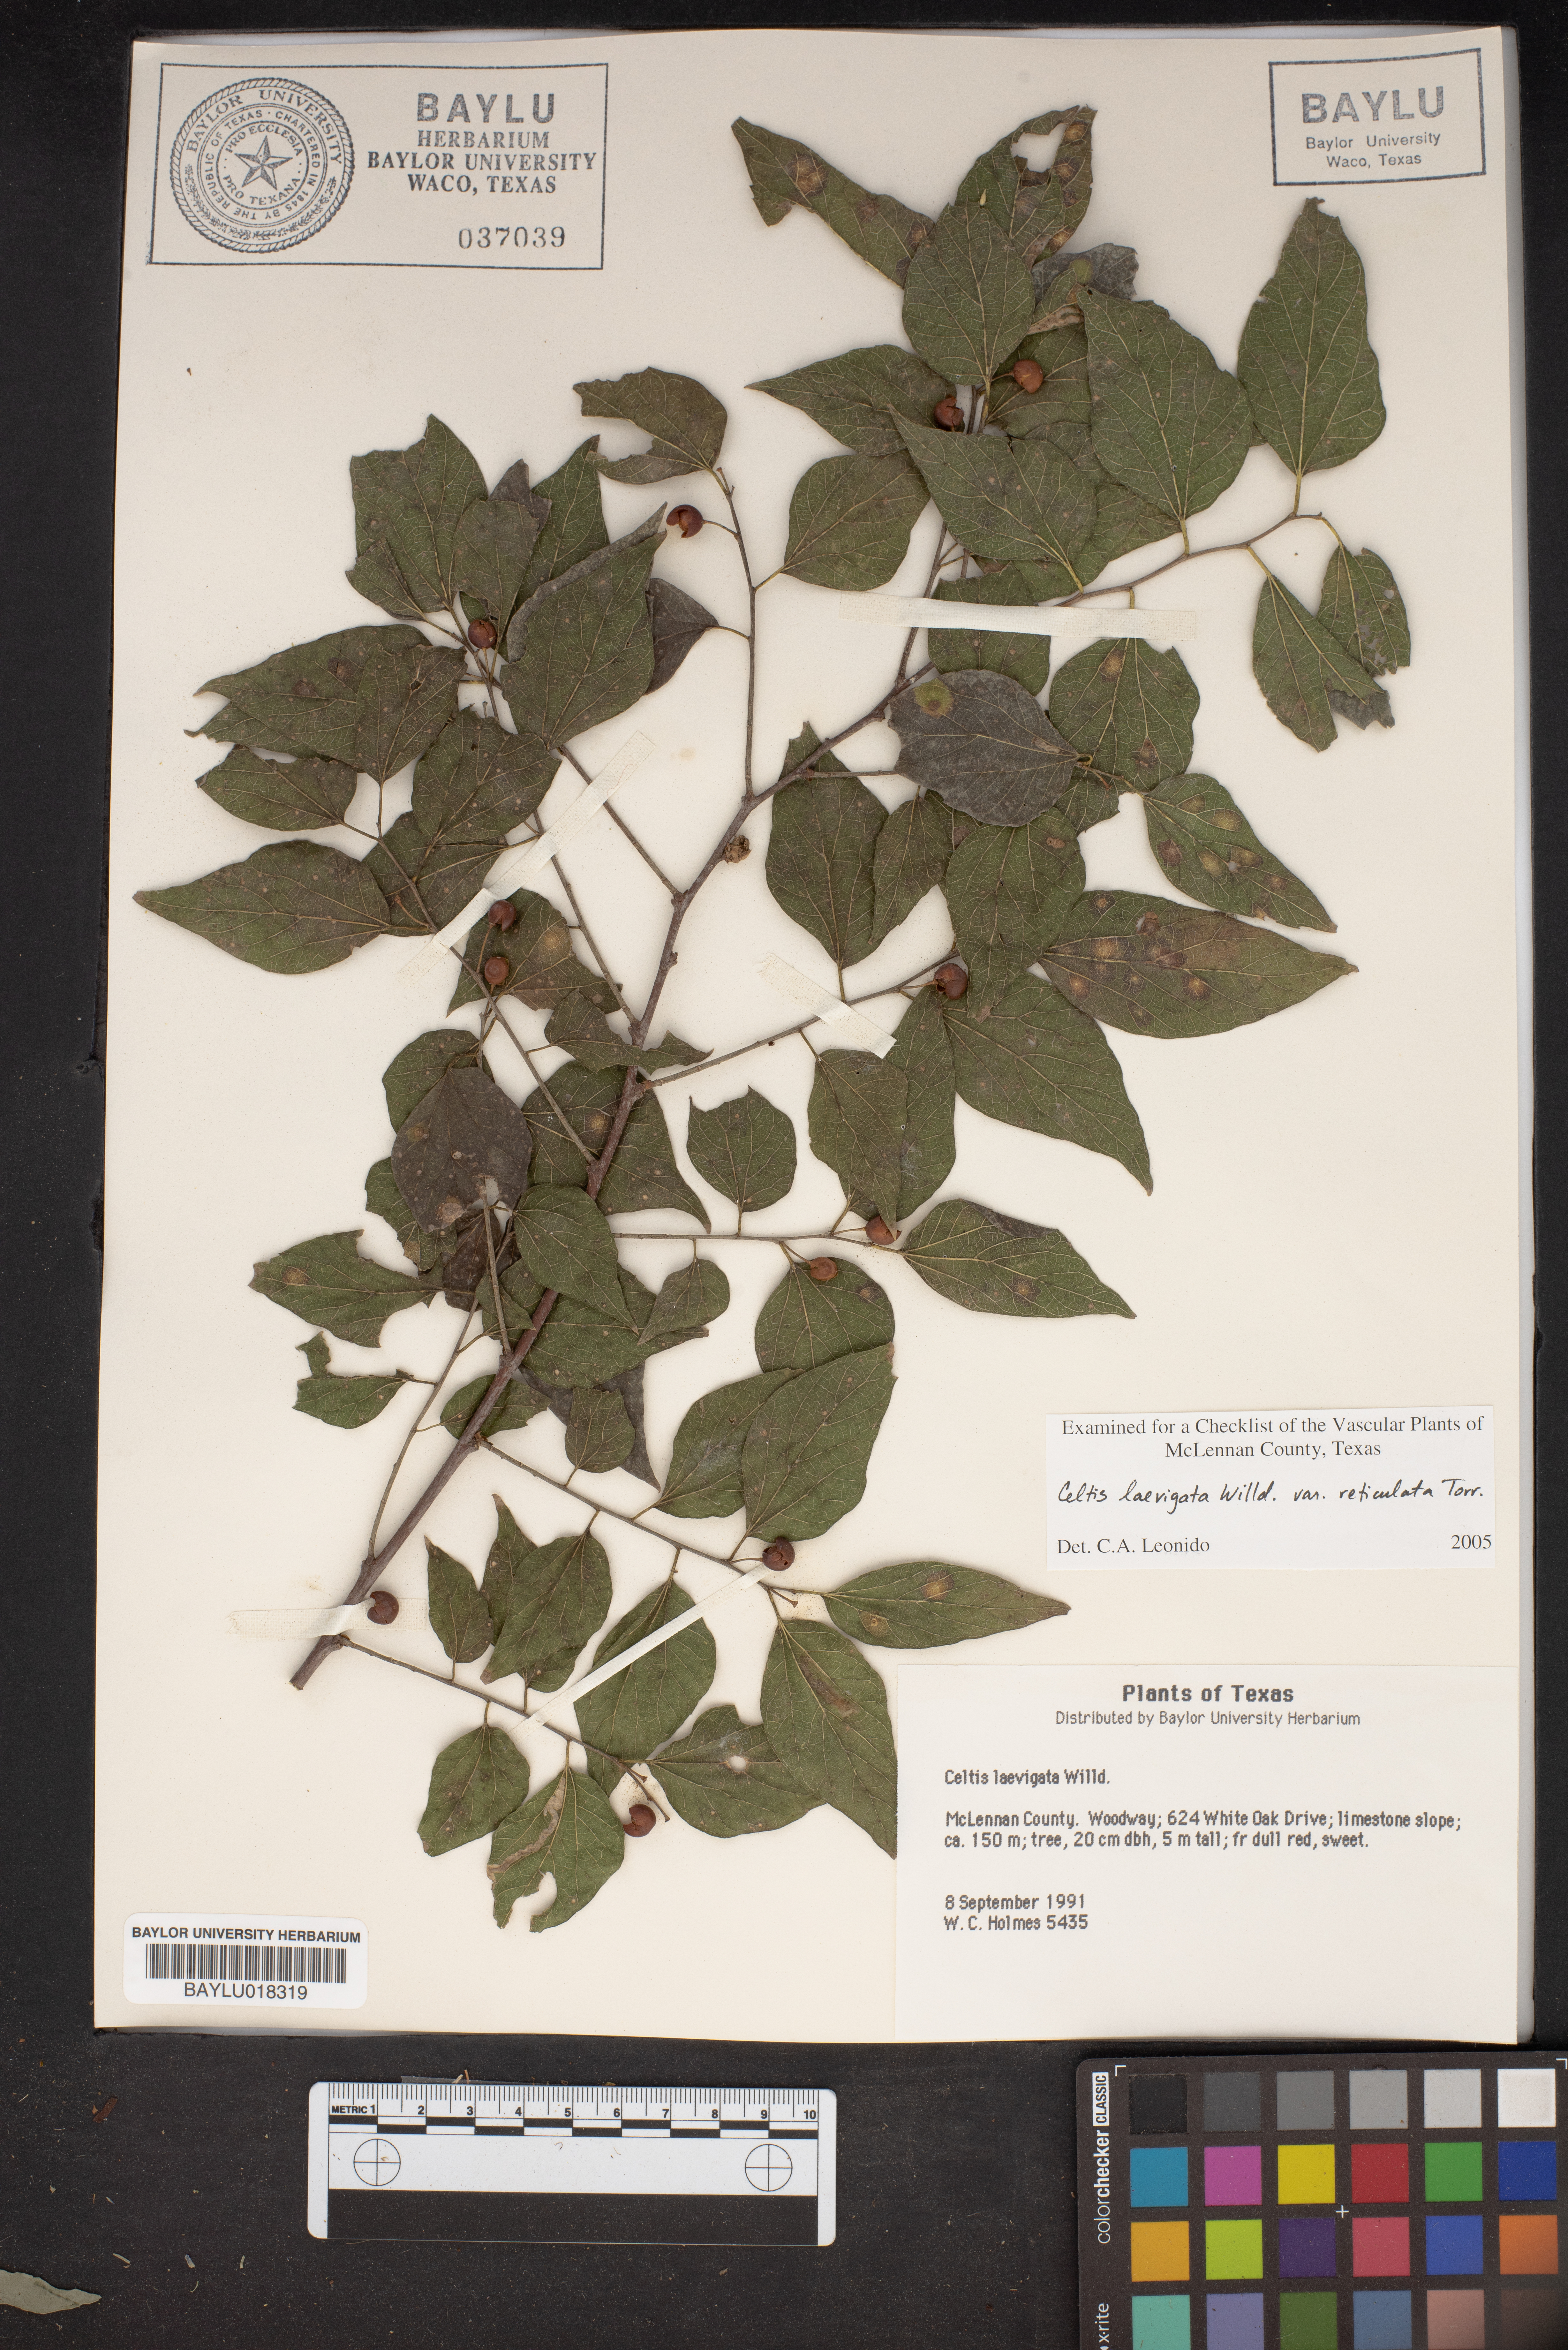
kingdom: Plantae
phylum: Tracheophyta
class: Magnoliopsida
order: Rosales
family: Cannabaceae
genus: Celtis
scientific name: Celtis reticulata
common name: Netleaf hackberry
